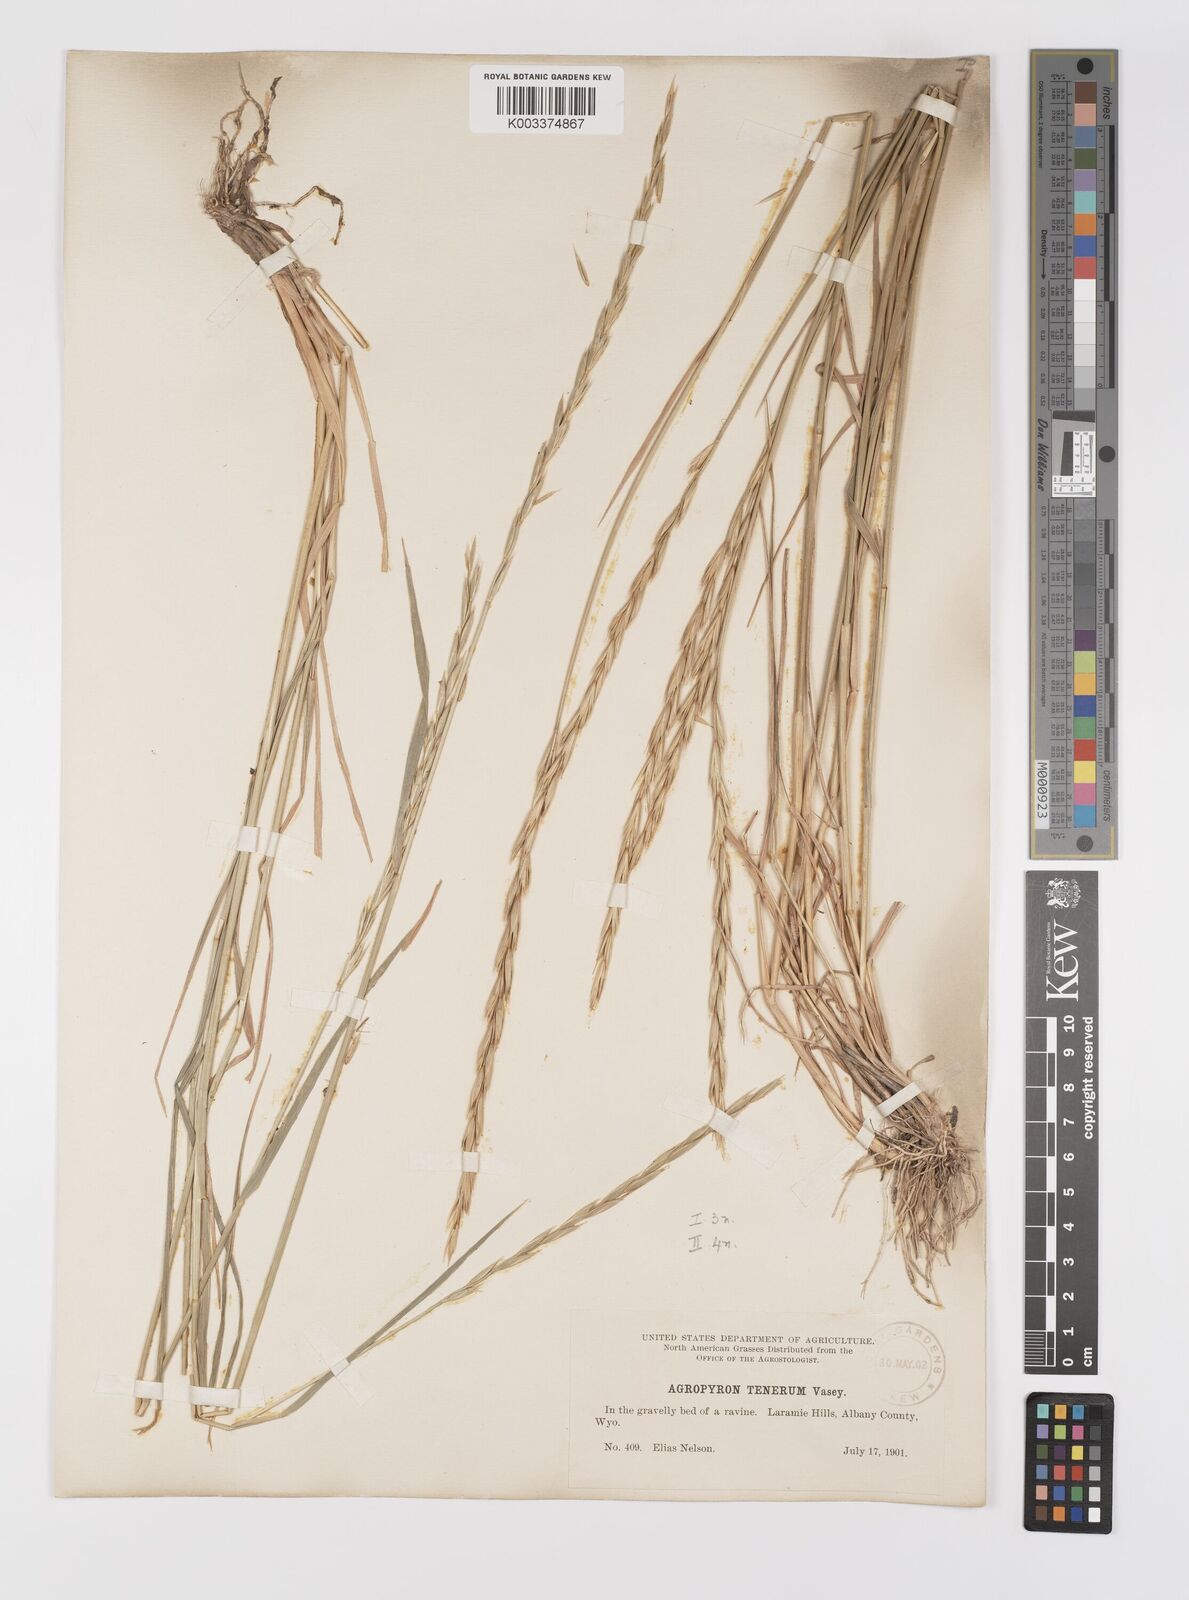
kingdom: Plantae
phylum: Tracheophyta
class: Liliopsida
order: Poales
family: Poaceae
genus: Elymus
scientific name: Elymus violaceus
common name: Arctic wheatgrass
